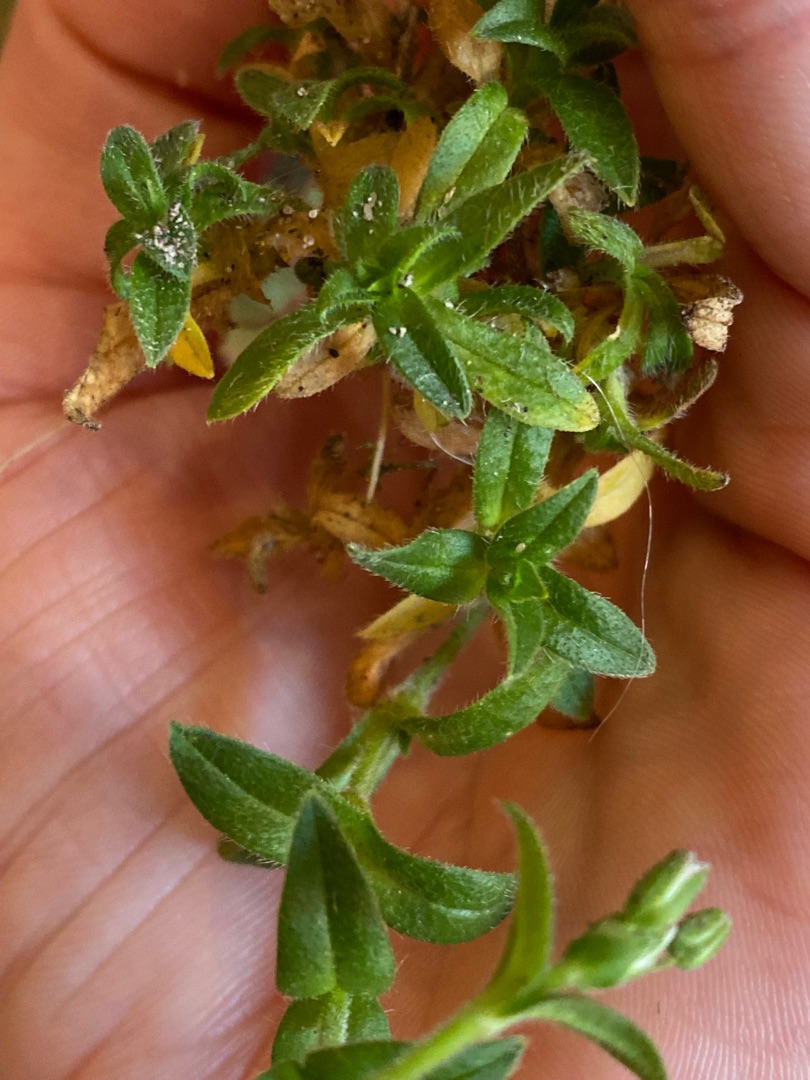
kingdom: Plantae
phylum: Tracheophyta
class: Magnoliopsida
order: Caryophyllales
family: Caryophyllaceae
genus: Cerastium
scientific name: Cerastium fontanum
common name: Almindelig hønsetarm
